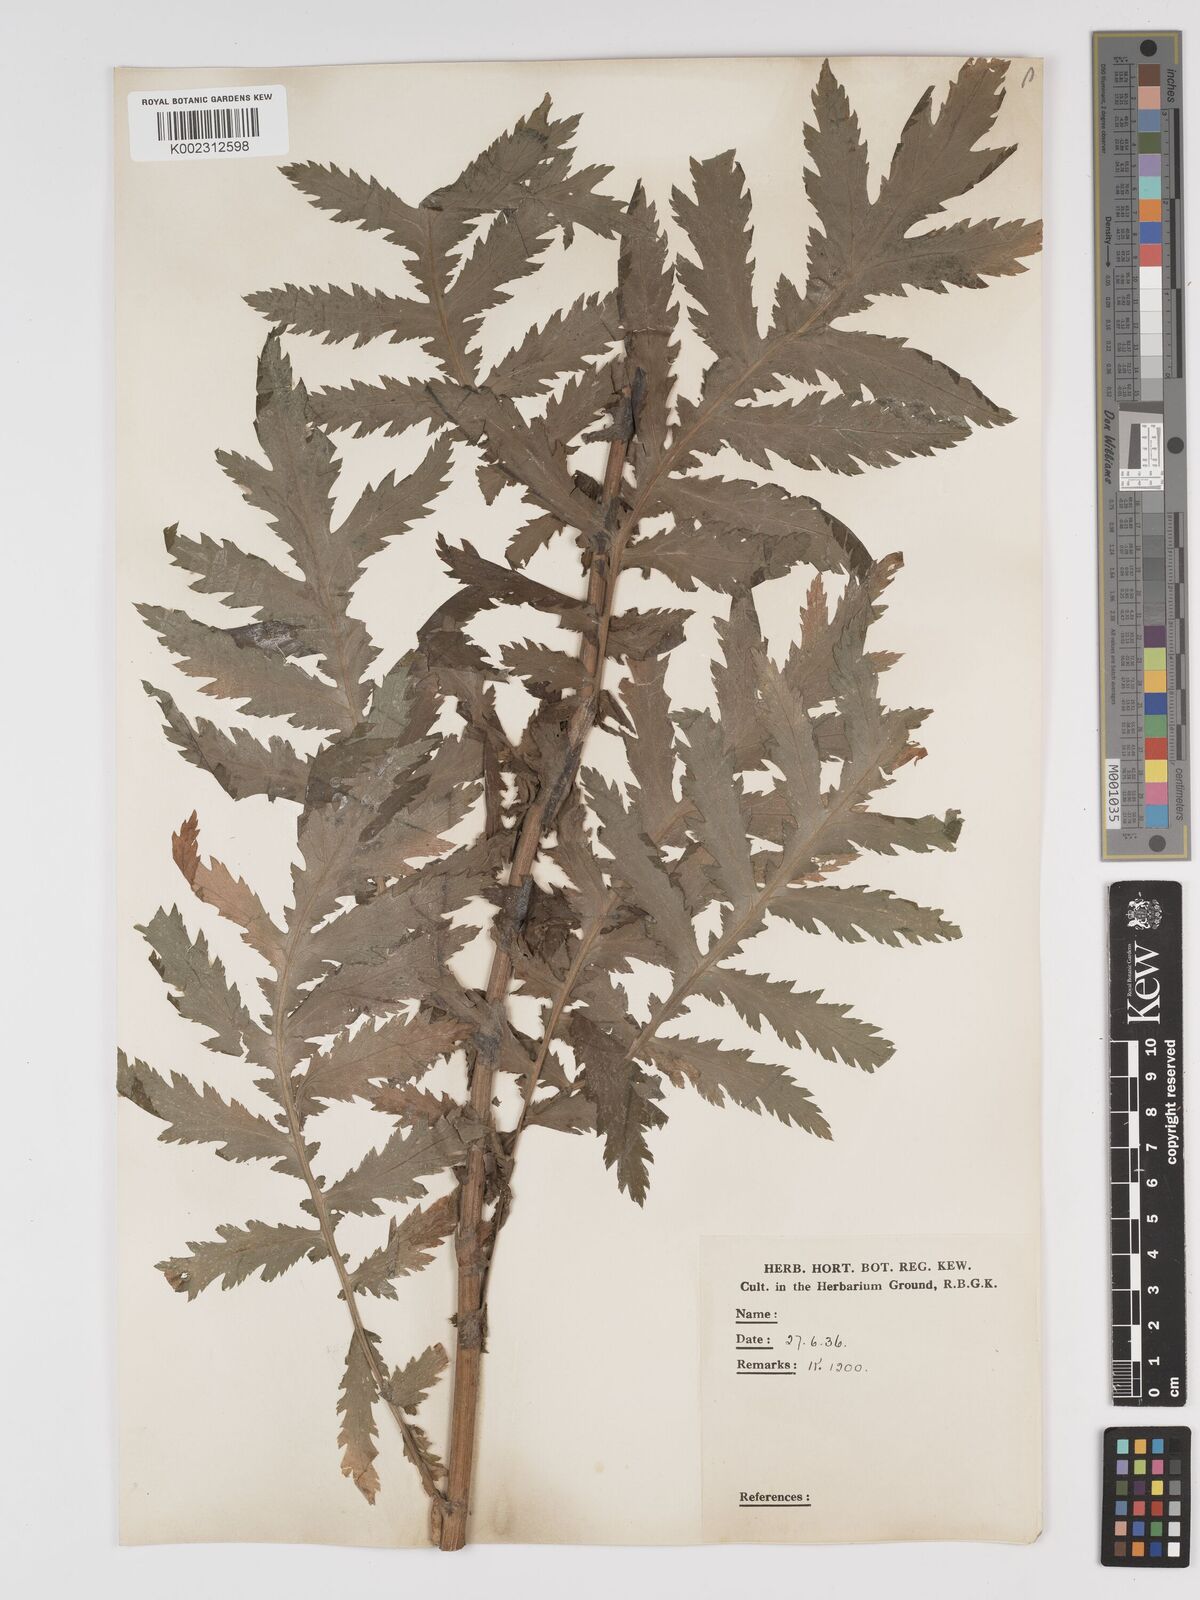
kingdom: Plantae
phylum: Tracheophyta
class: Magnoliopsida
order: Asterales
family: Asteraceae
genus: Tanacetum
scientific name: Tanacetum macrophyllum
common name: Rayed tansy
